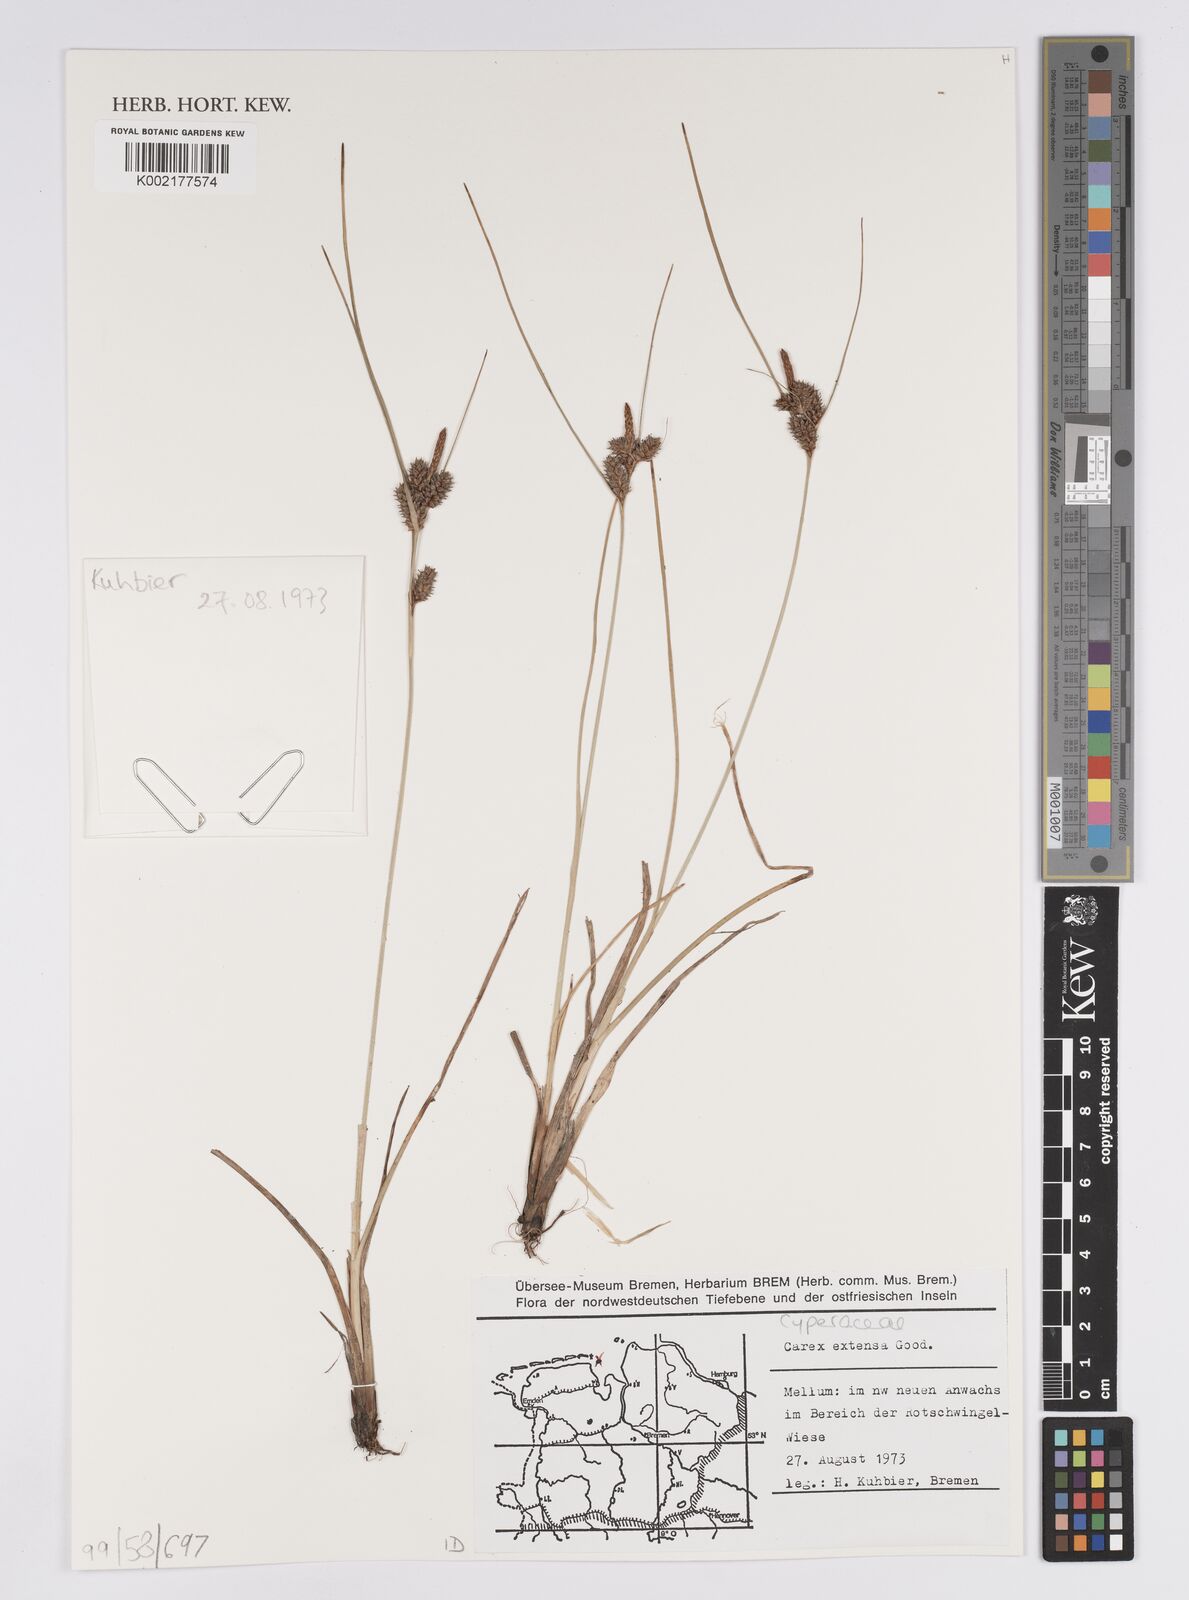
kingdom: Plantae
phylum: Tracheophyta
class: Liliopsida
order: Poales
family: Cyperaceae
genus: Carex
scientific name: Carex extensa
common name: Long-bracted sedge
